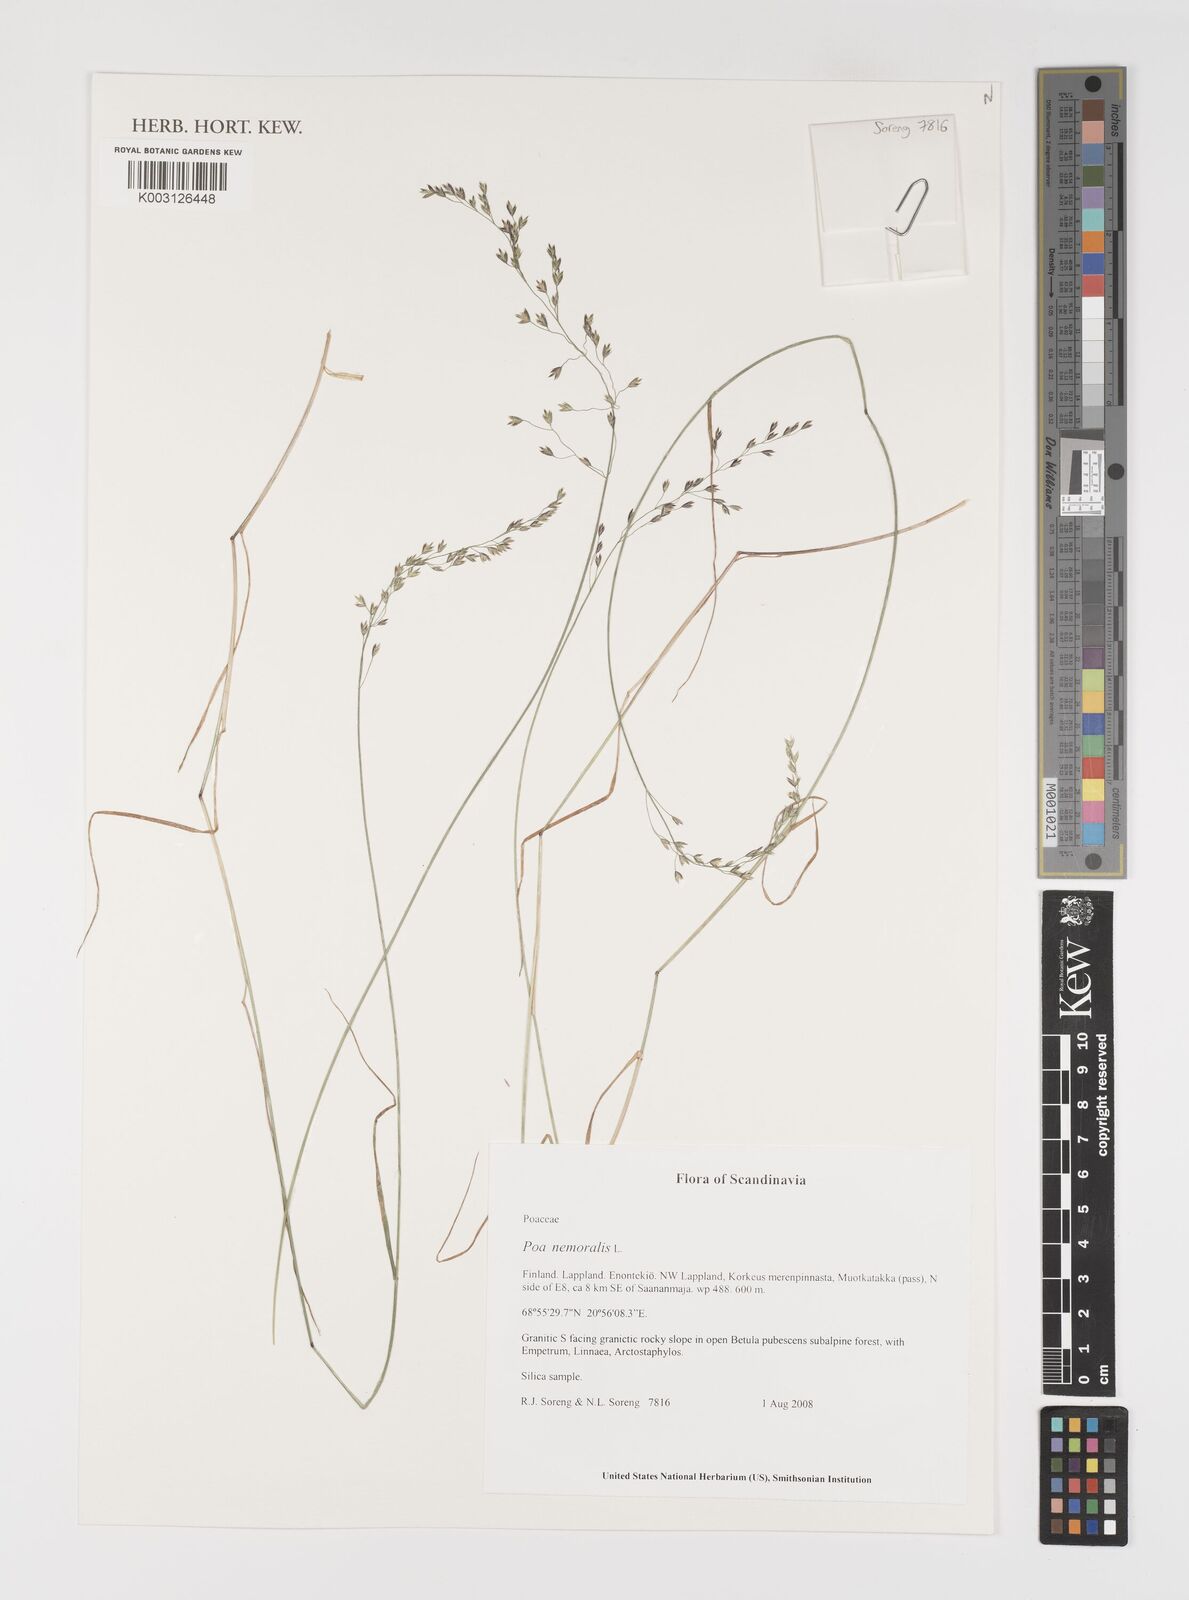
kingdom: Plantae
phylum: Tracheophyta
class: Liliopsida
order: Poales
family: Poaceae
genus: Poa
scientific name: Poa nemoralis
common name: Wood bluegrass
